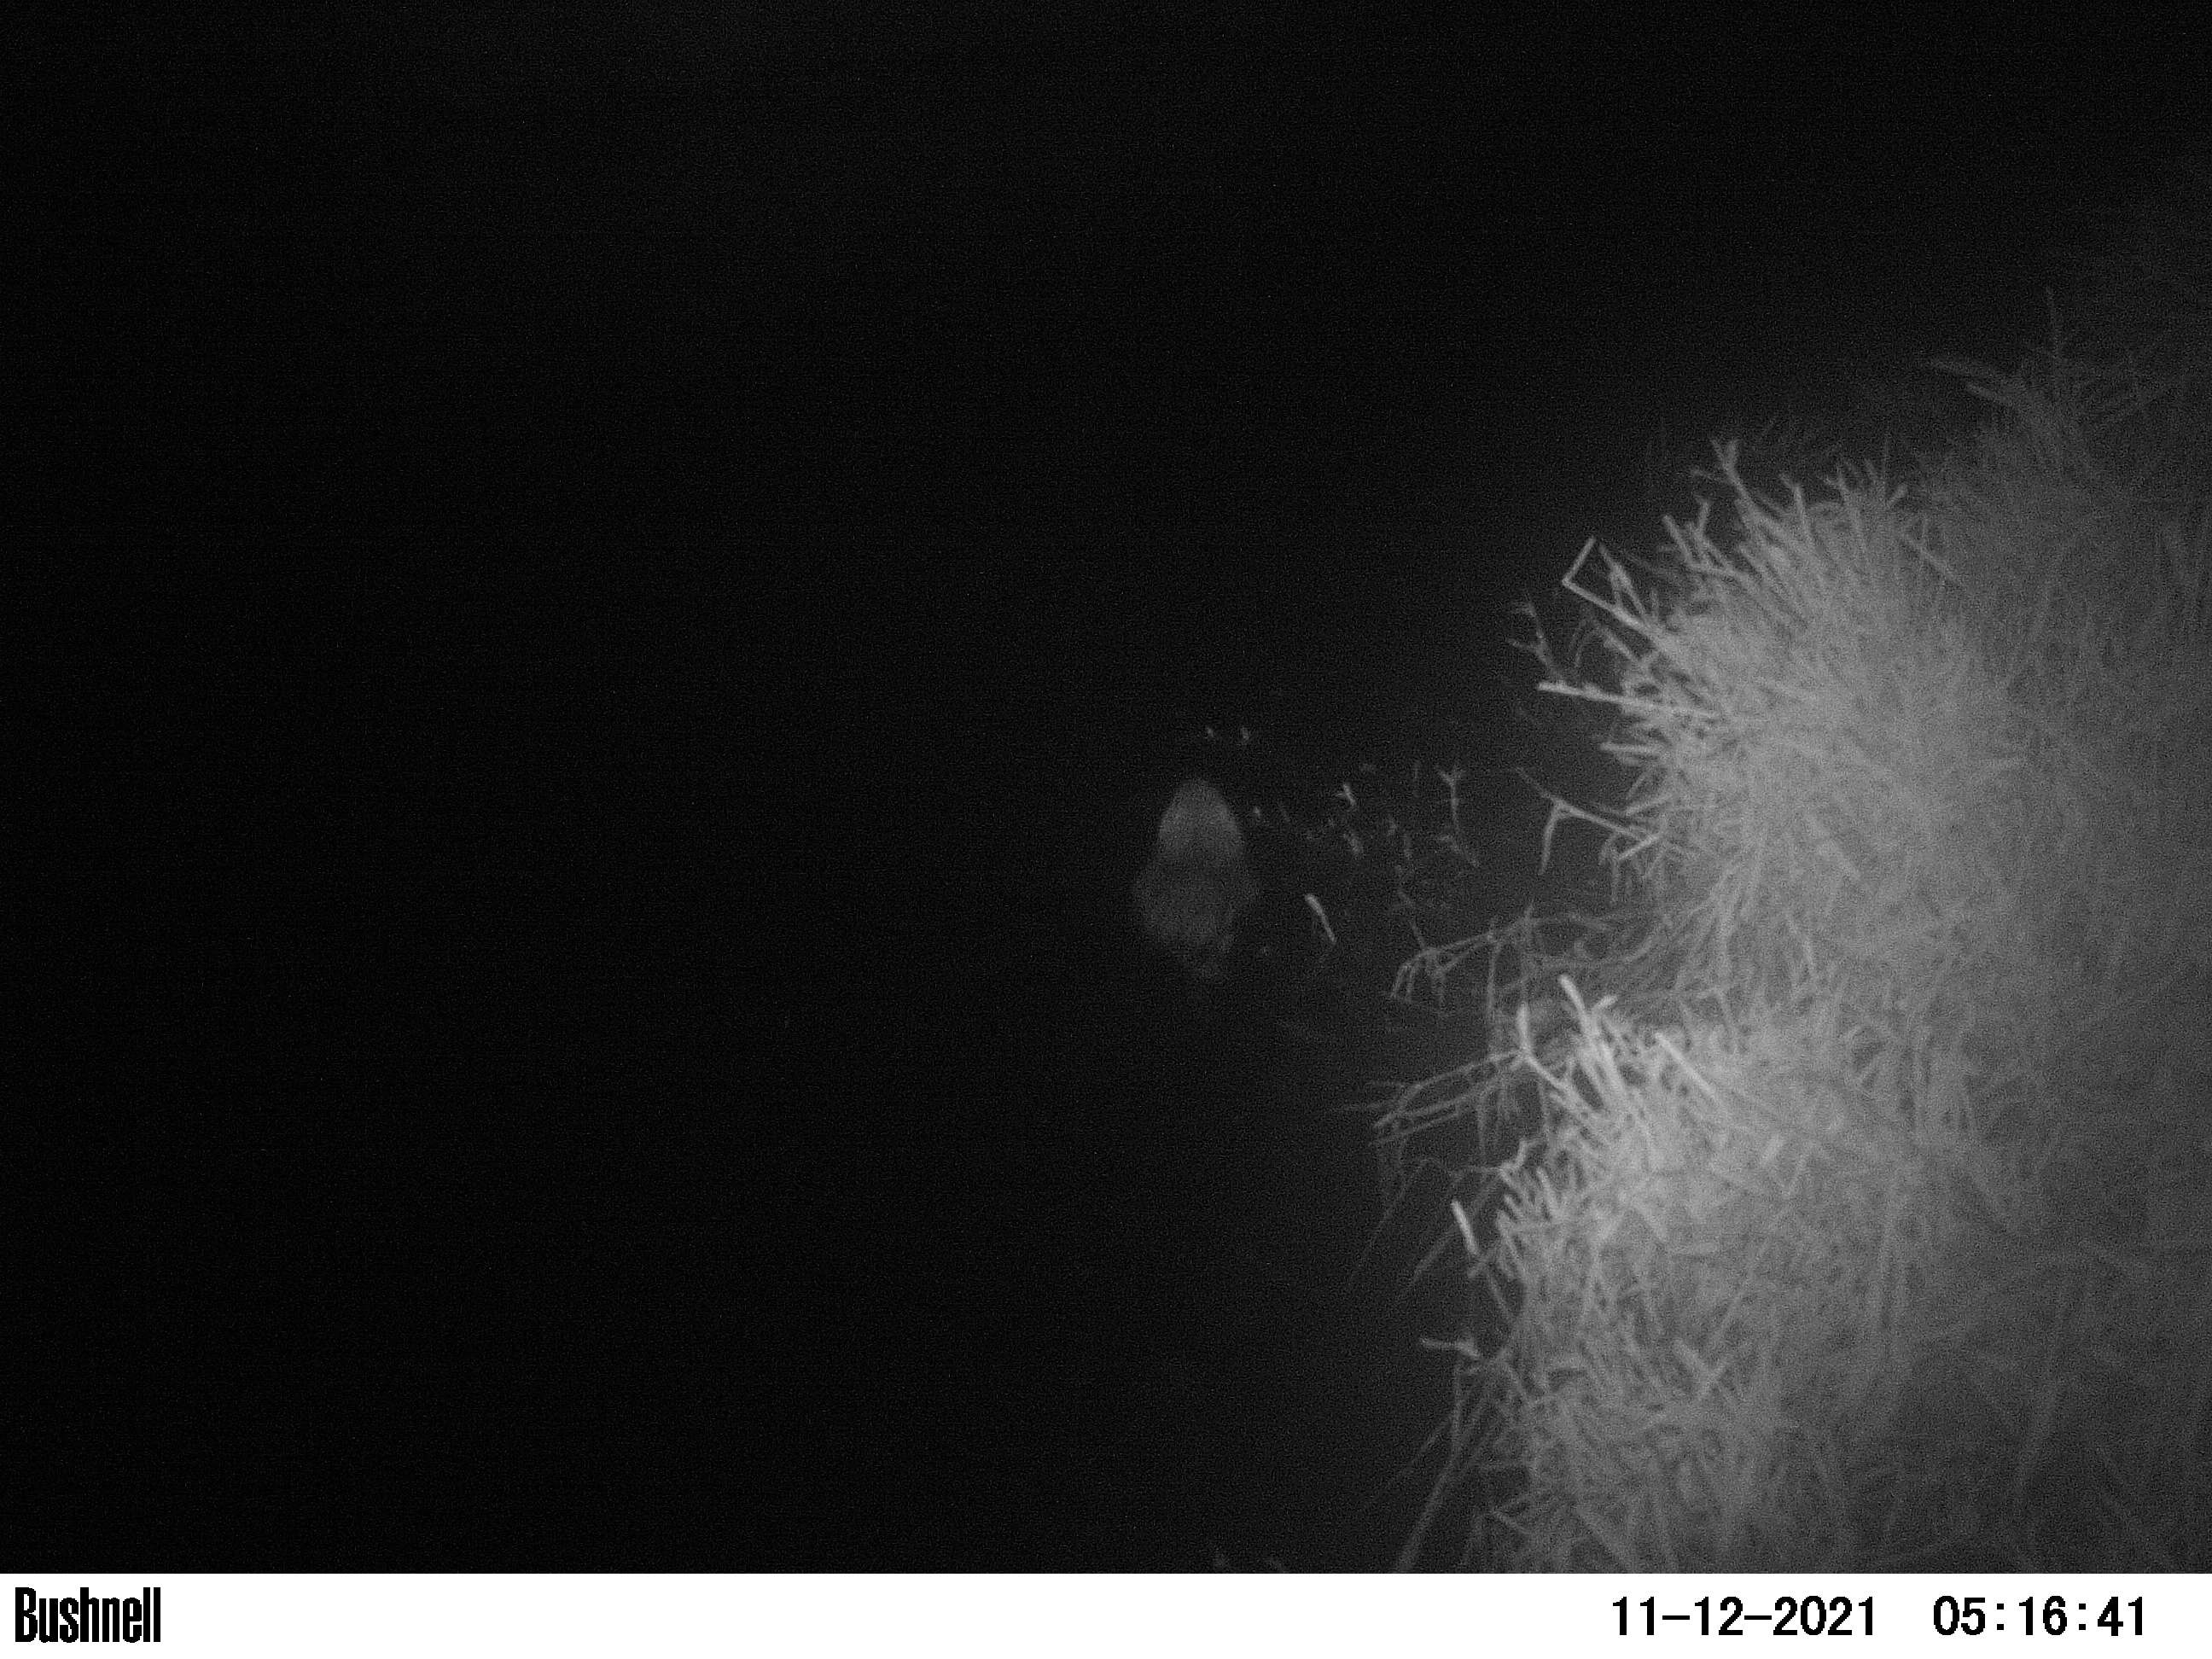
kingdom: Animalia
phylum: Chordata
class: Mammalia
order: Rodentia
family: Cricetidae
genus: Ondatra
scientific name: Ondatra zibethicus
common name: Muskrat
